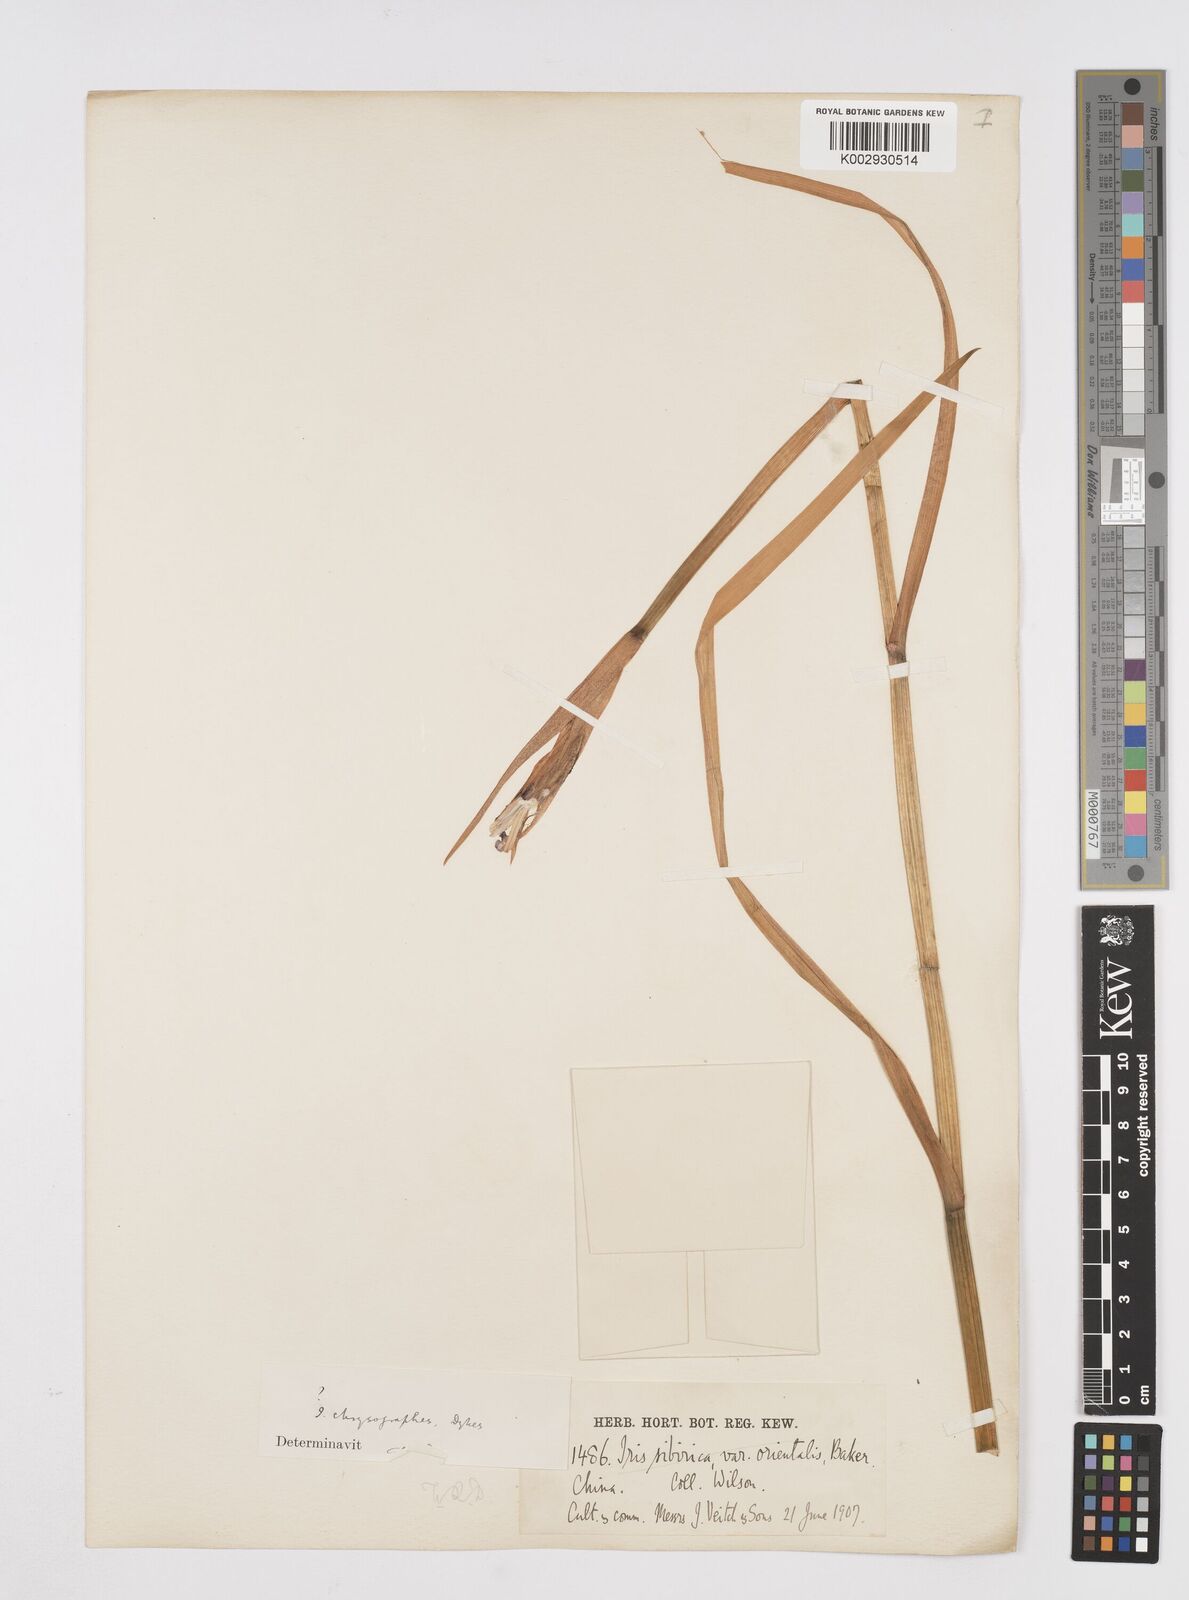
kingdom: Plantae
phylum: Tracheophyta
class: Liliopsida
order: Asparagales
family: Iridaceae
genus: Iris
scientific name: Iris chrysographes
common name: Gold-vein iris
